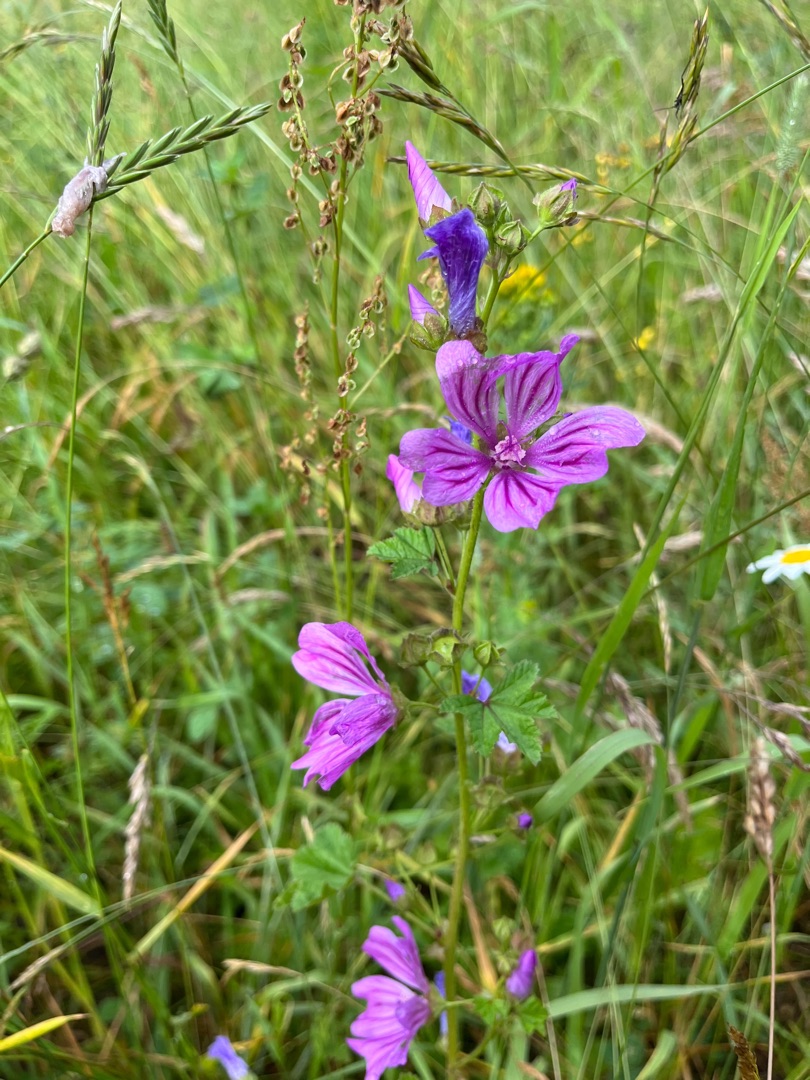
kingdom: Plantae
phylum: Tracheophyta
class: Magnoliopsida
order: Malvales
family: Malvaceae
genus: Malva
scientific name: Malva sylvestris
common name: Almindelig katost
